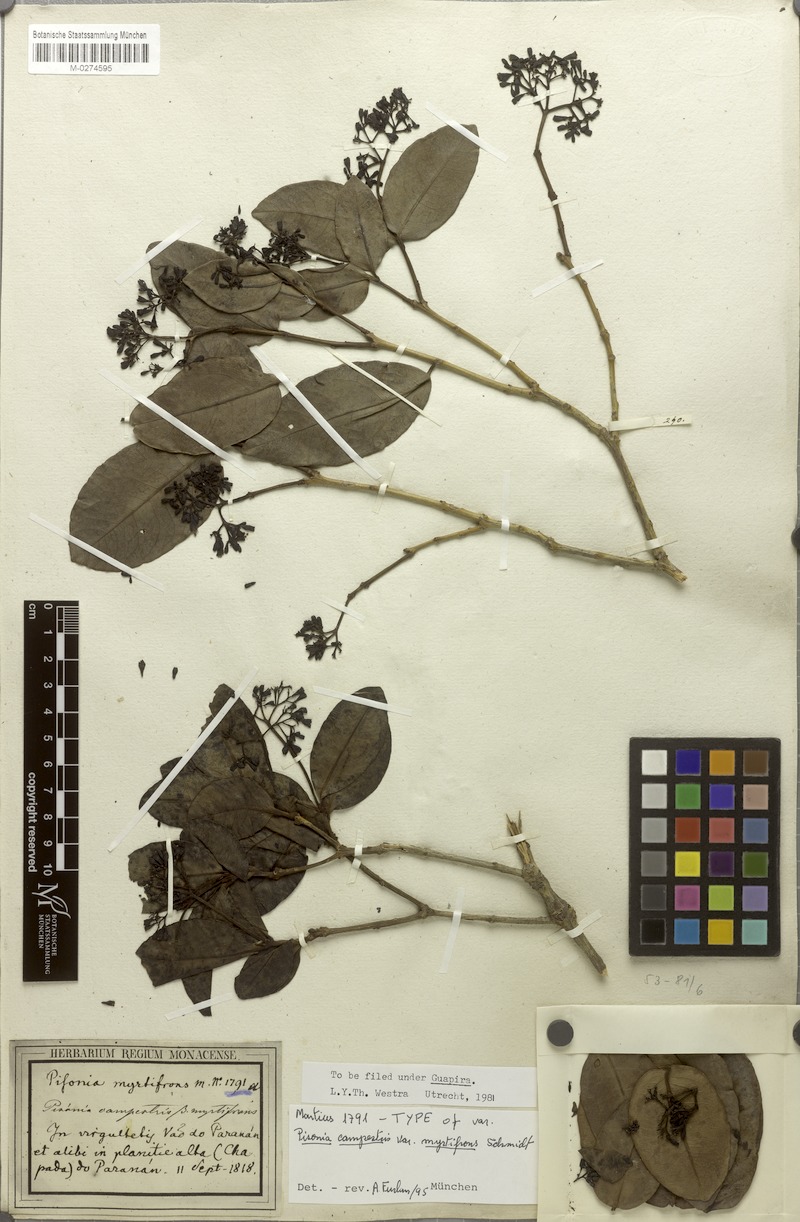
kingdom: Plantae
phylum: Tracheophyta
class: Magnoliopsida
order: Caryophyllales
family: Nyctaginaceae
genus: Guapira
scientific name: Guapira campestris
